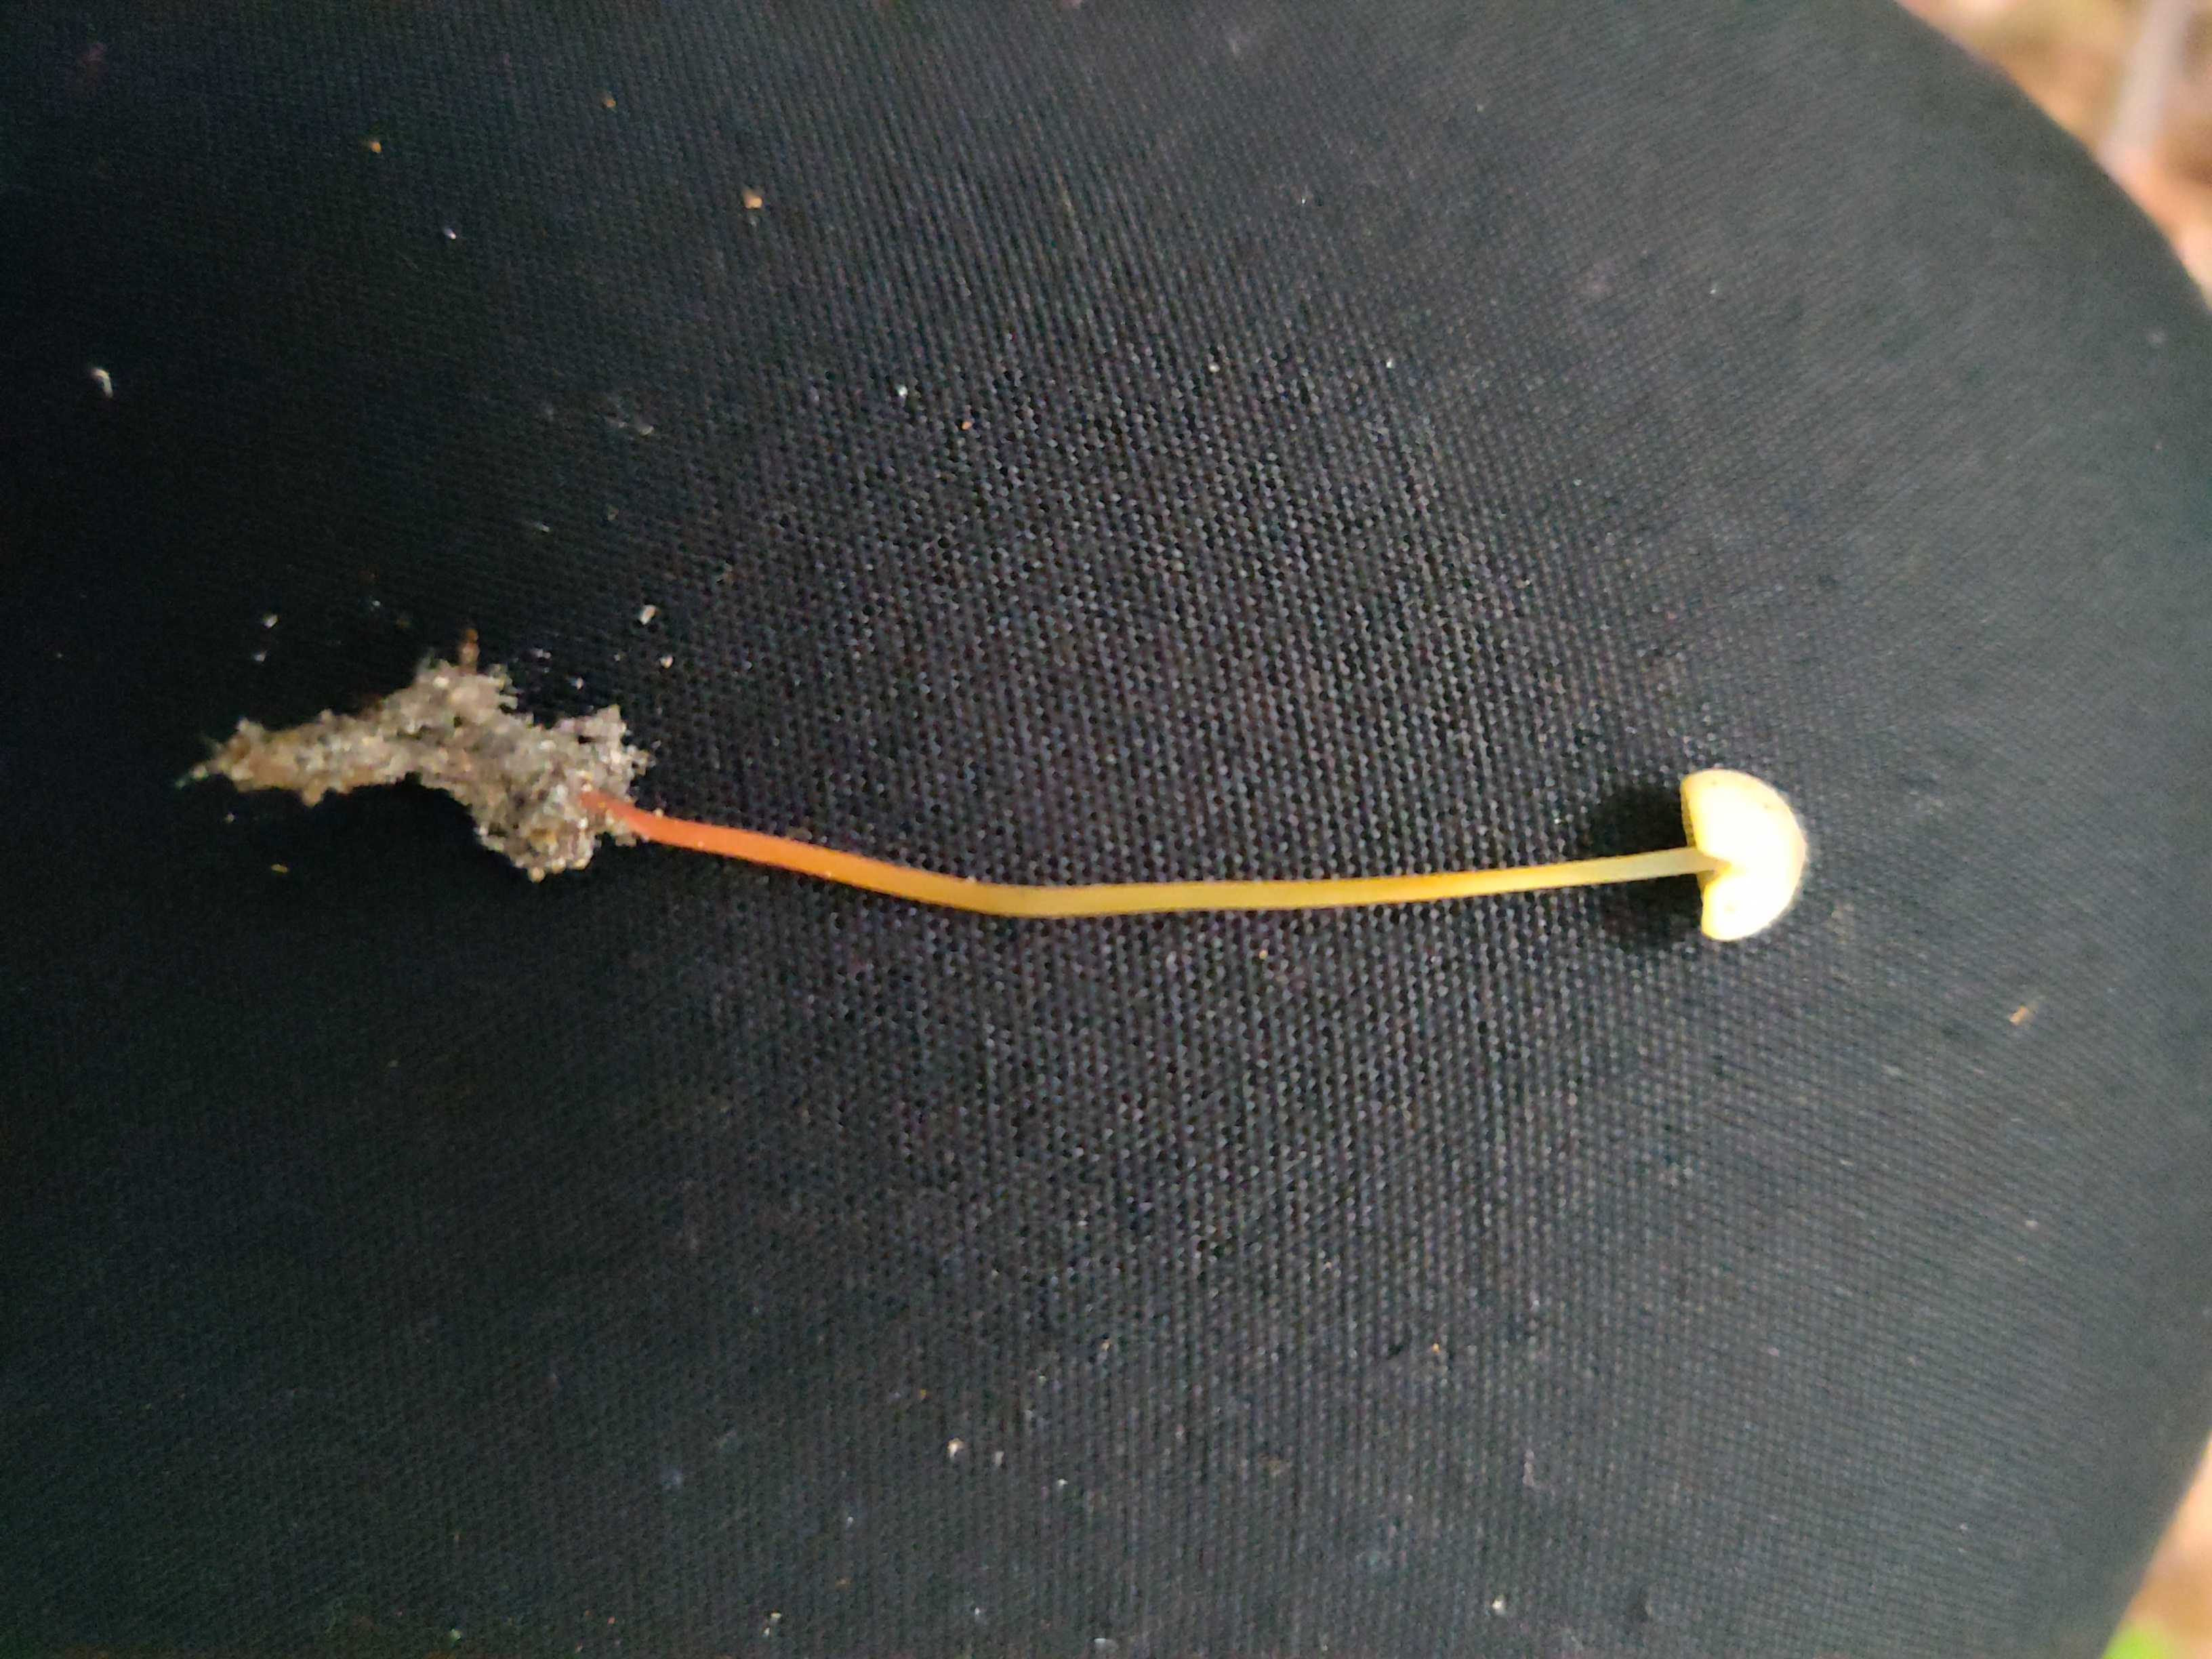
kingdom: Fungi
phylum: Basidiomycota
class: Agaricomycetes
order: Agaricales
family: Mycenaceae
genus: Mycena
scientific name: Mycena crocata
